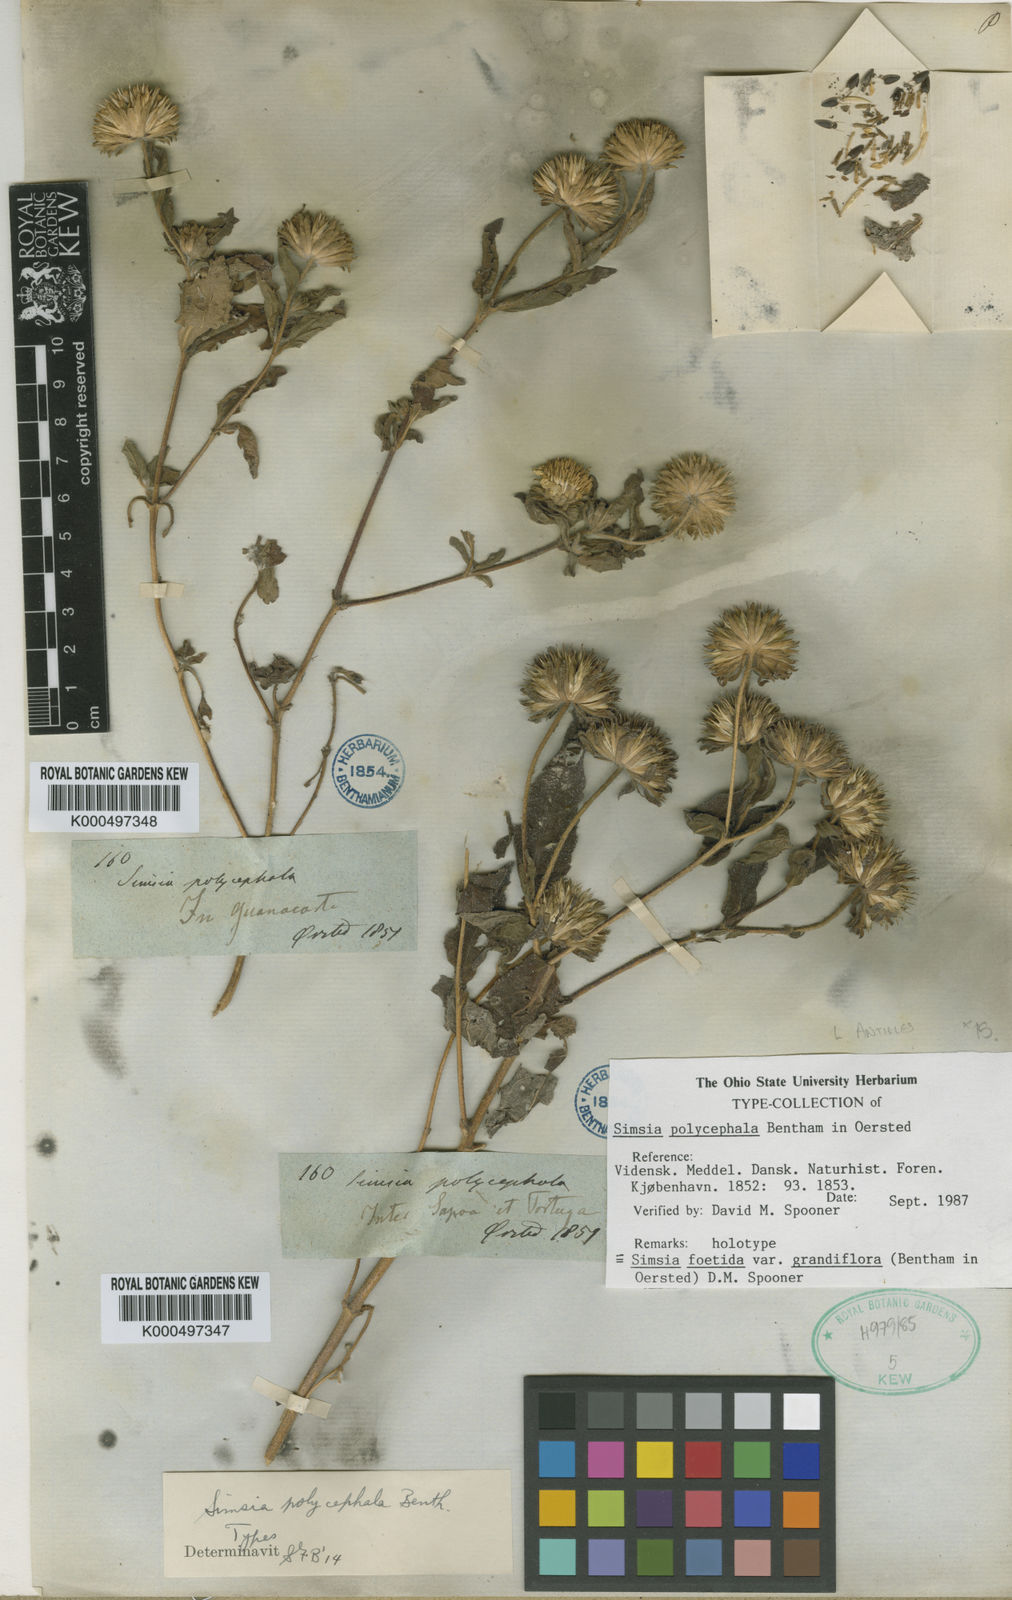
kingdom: Plantae
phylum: Tracheophyta
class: Magnoliopsida
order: Asterales
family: Asteraceae
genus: Simsia
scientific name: Simsia foetida
